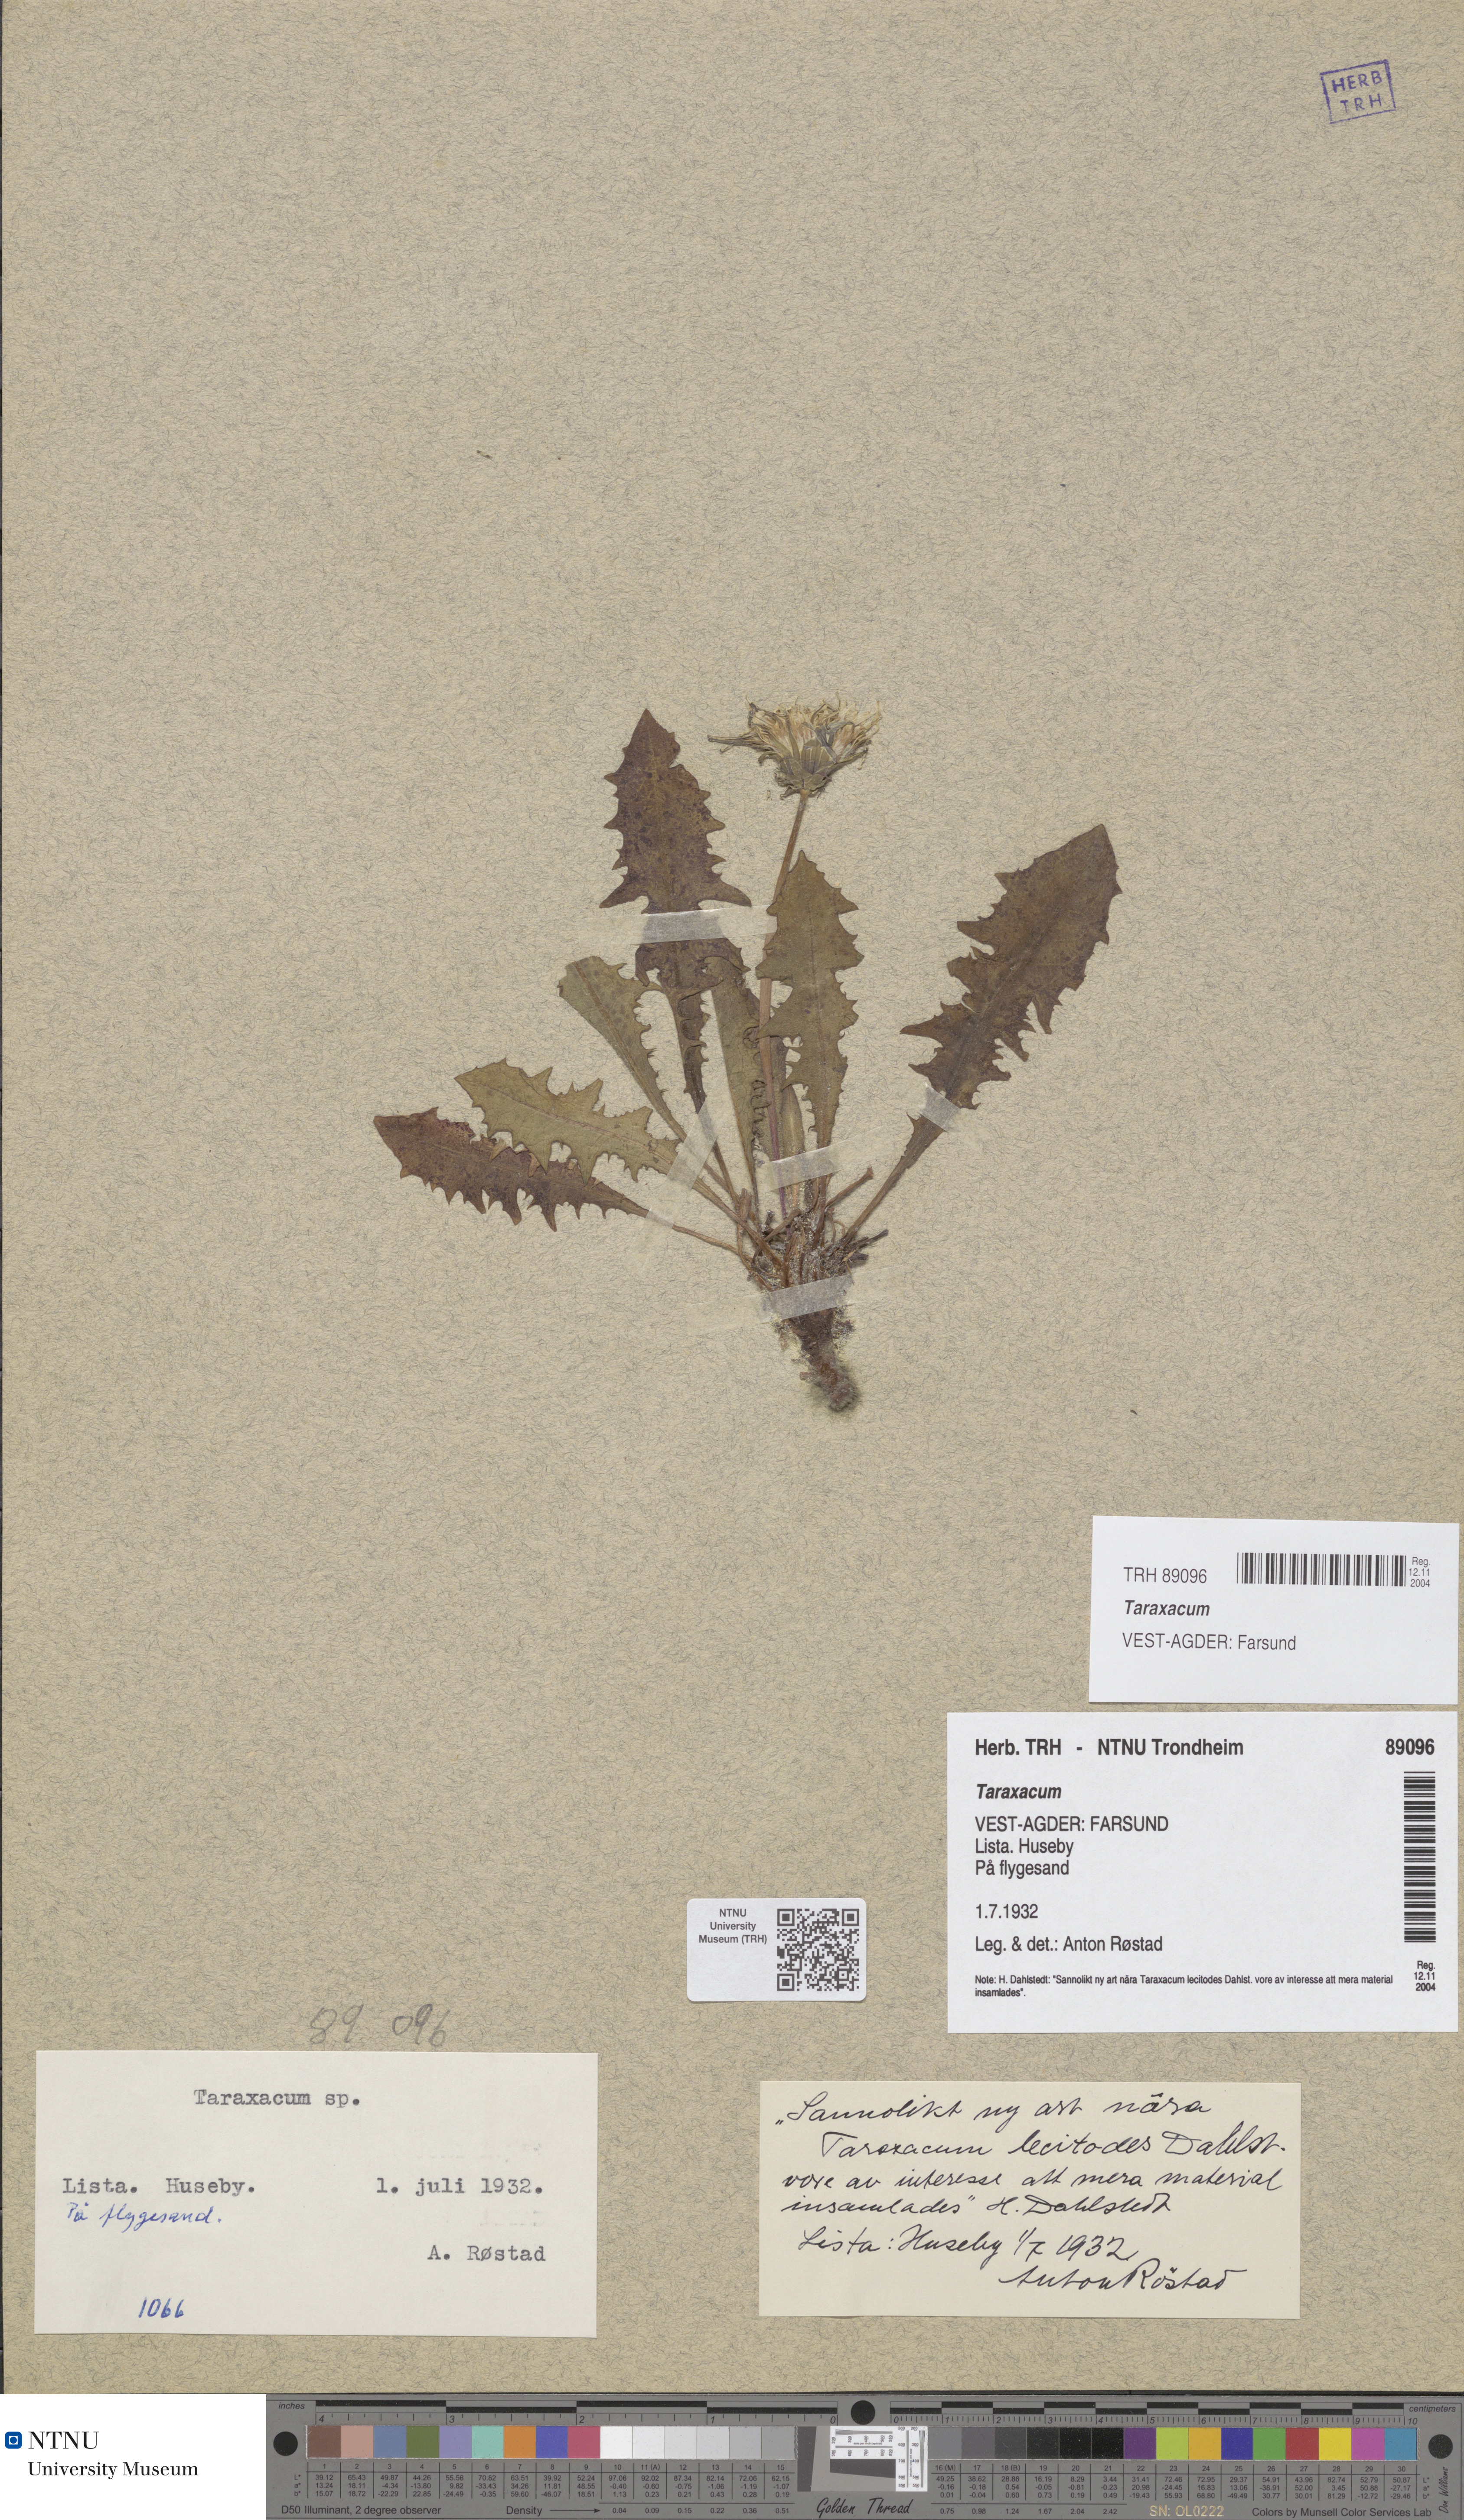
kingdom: Plantae
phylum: Tracheophyta
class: Magnoliopsida
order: Asterales
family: Asteraceae
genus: Taraxacum
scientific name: Taraxacum
